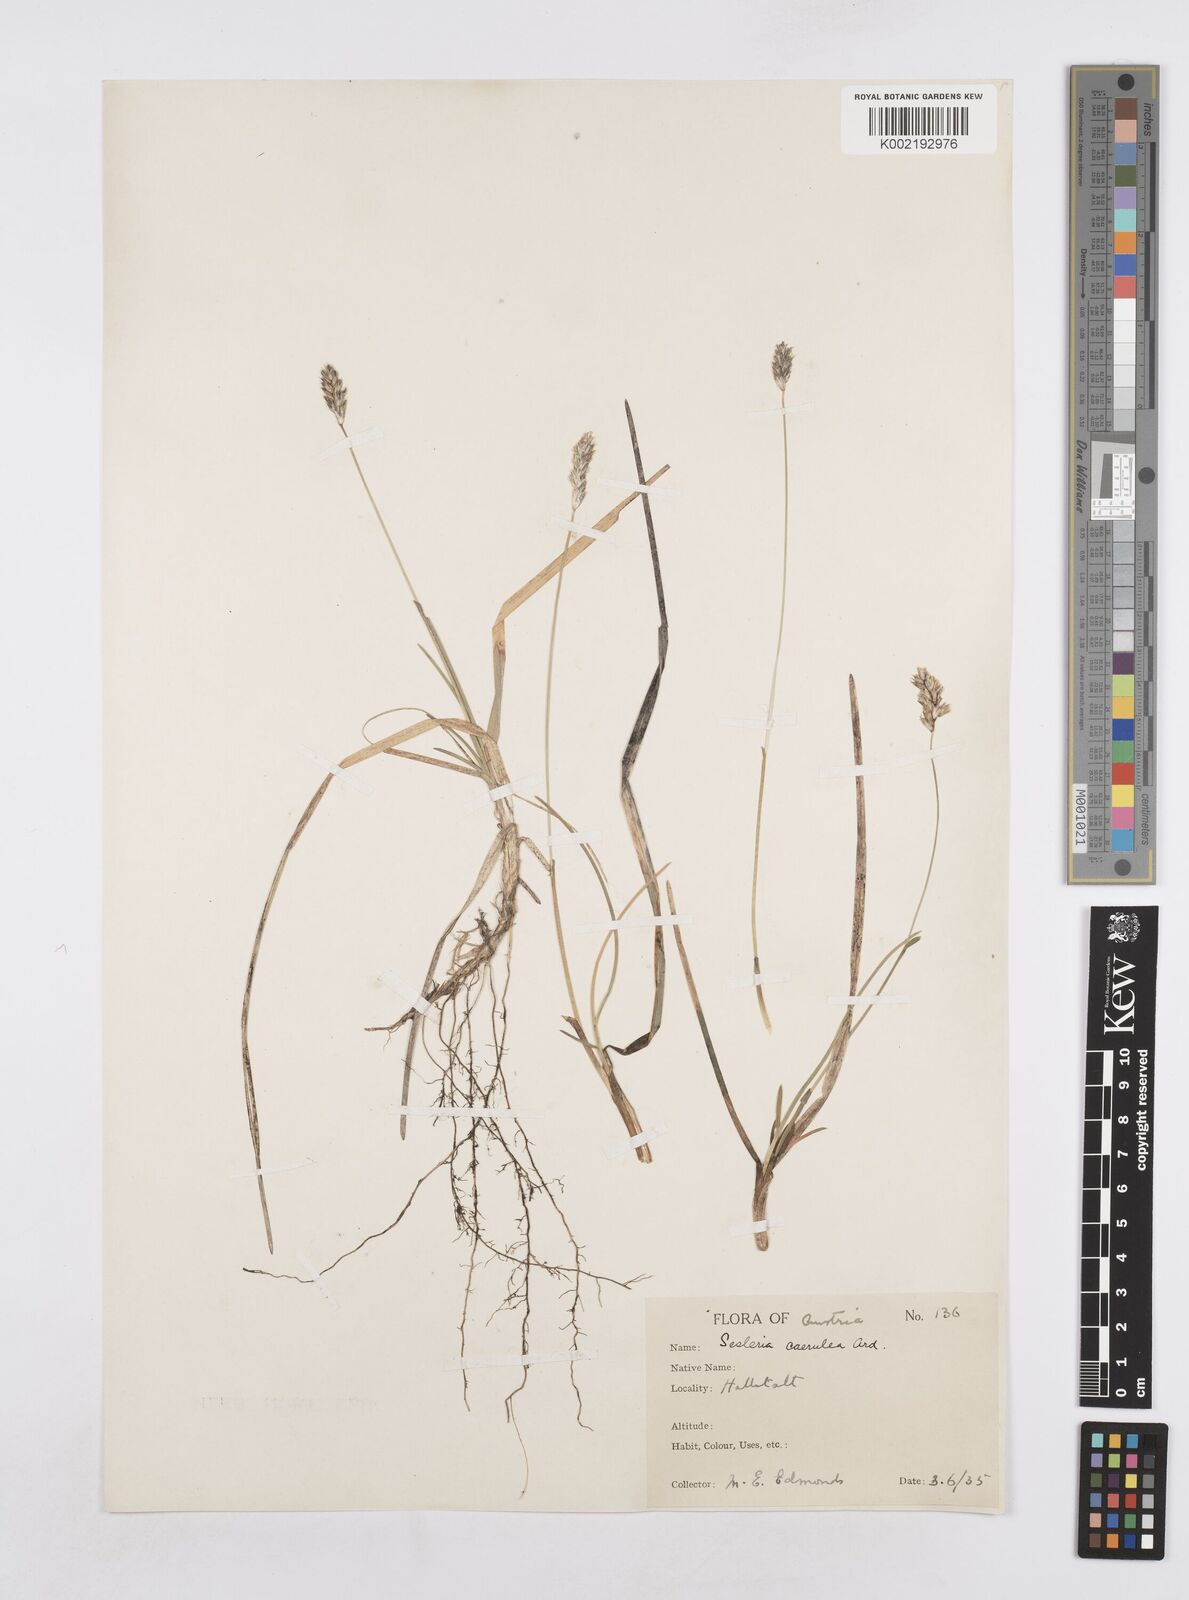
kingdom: Plantae
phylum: Tracheophyta
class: Liliopsida
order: Poales
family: Poaceae
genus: Sesleria
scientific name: Sesleria caerulea
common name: Blue moor-grass
